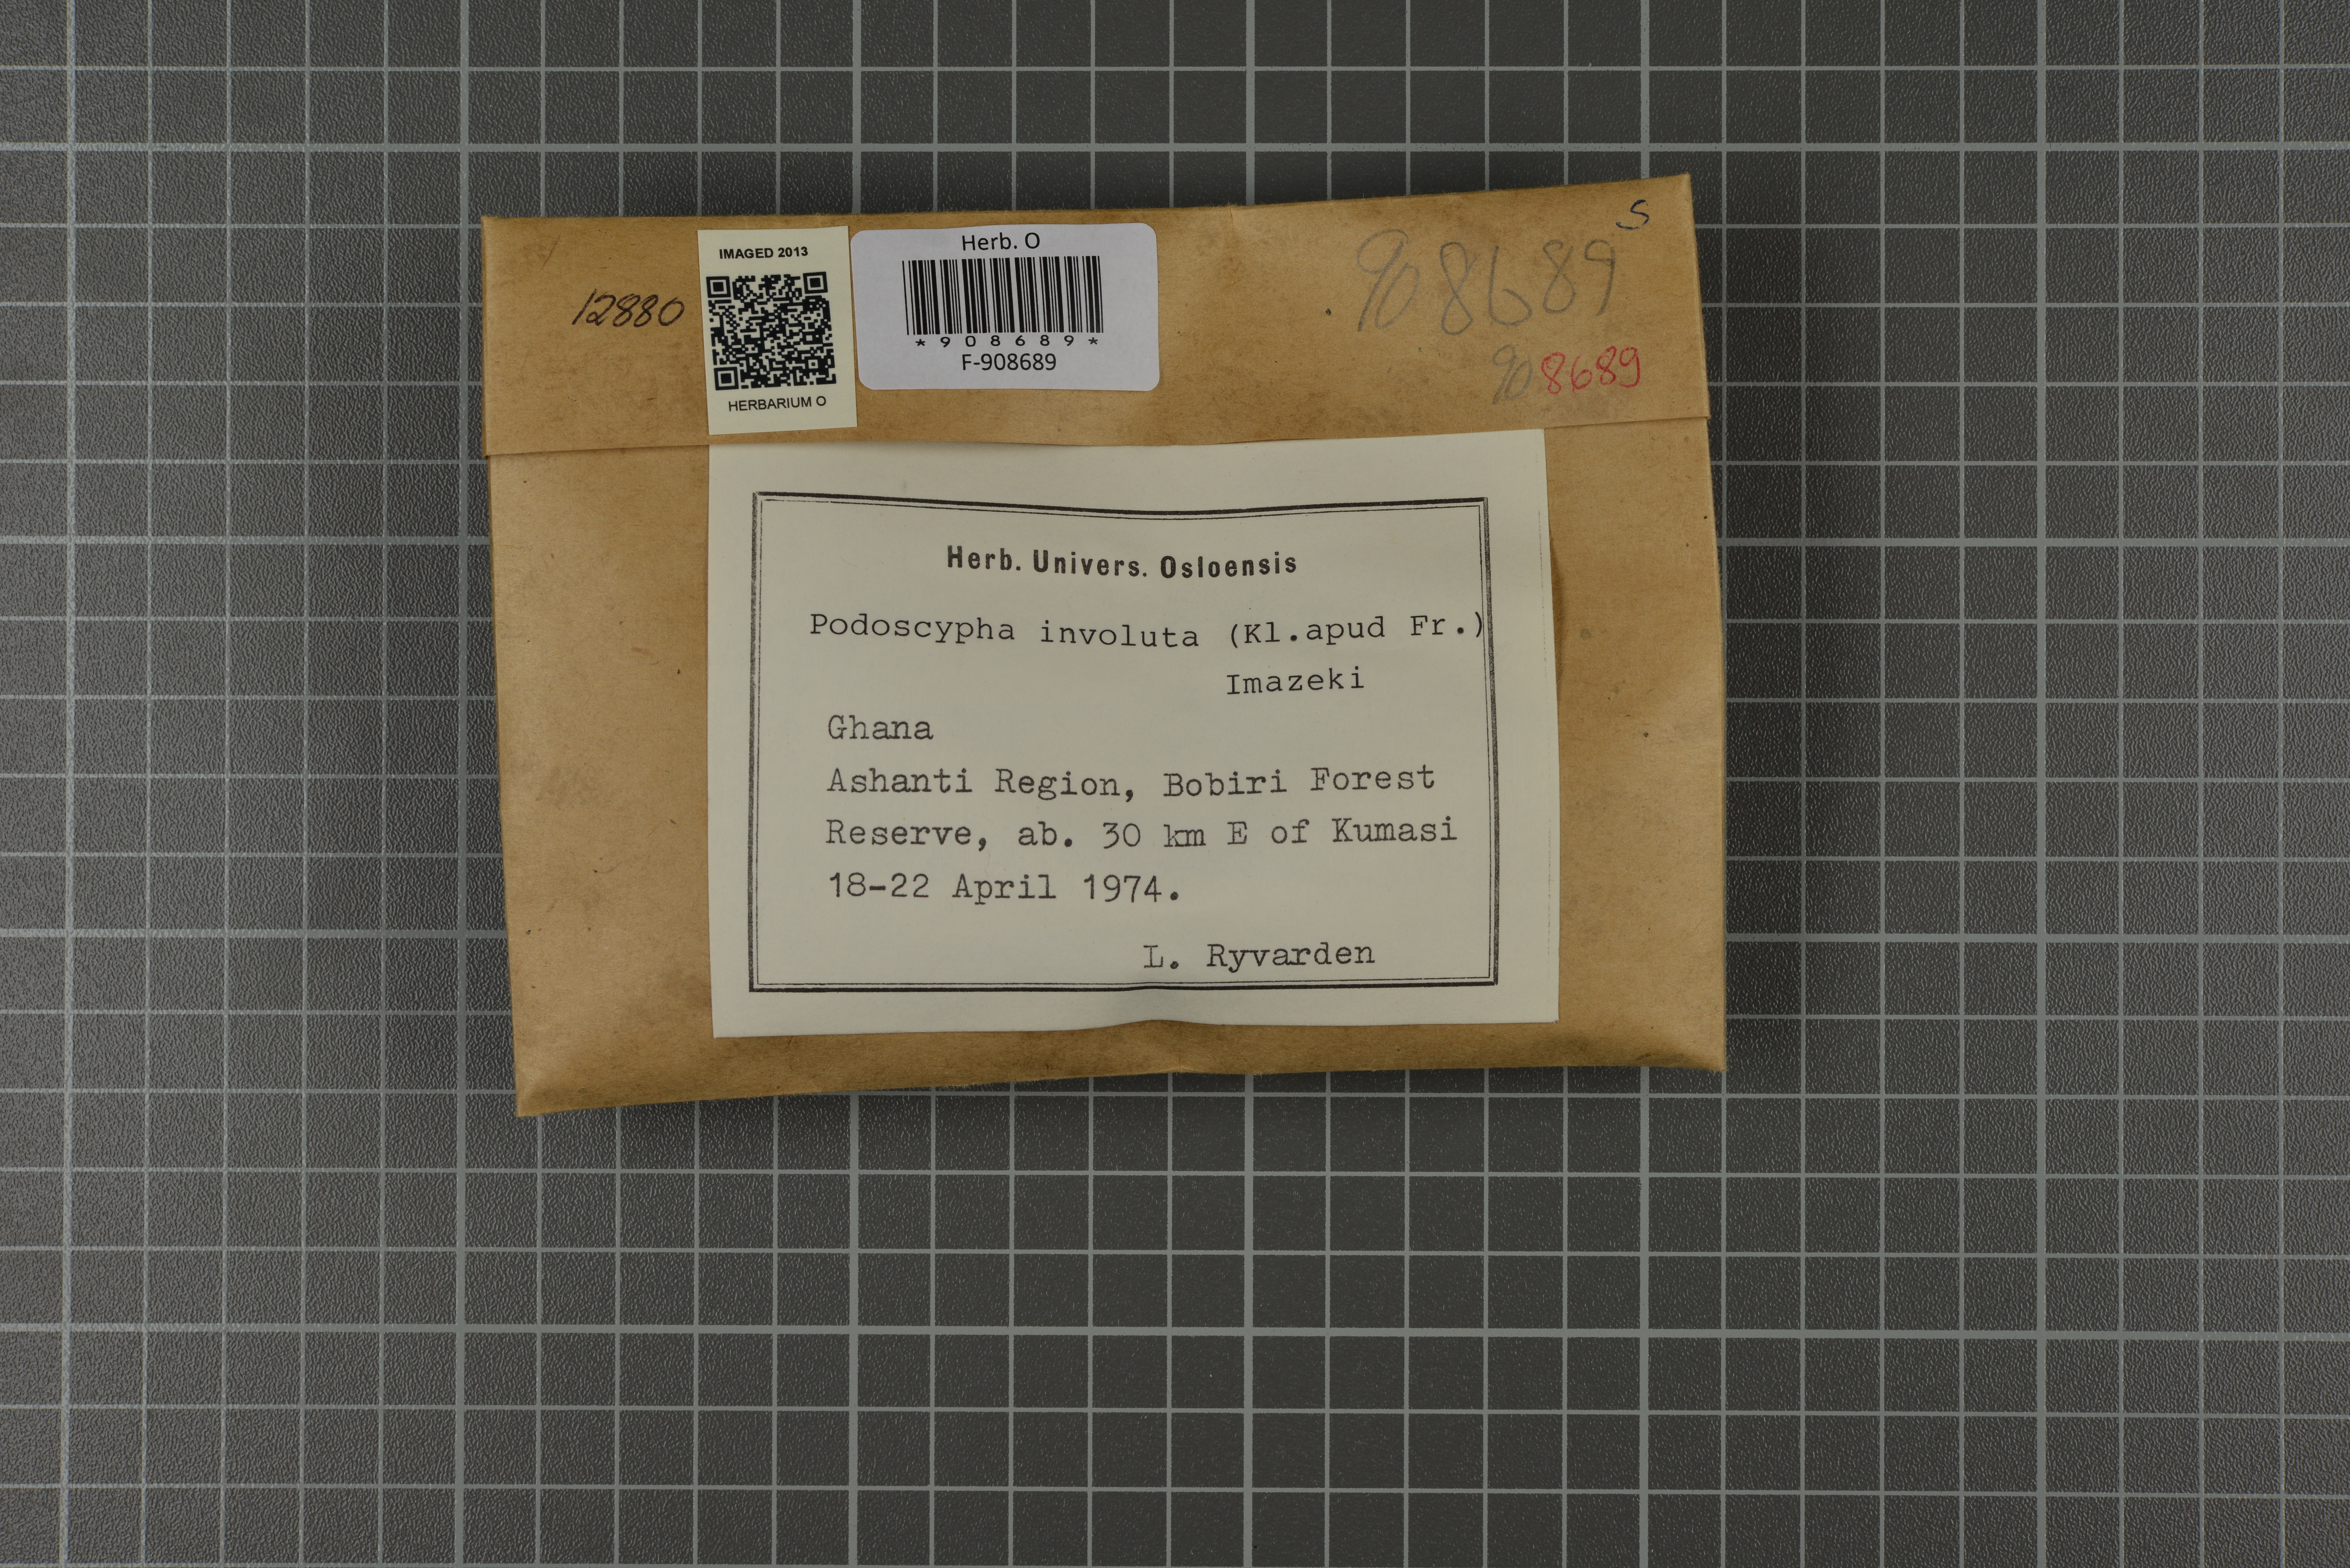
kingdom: Fungi
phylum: Basidiomycota
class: Agaricomycetes
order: Polyporales
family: Podoscyphaceae
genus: Podoscypha
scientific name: Podoscypha involuta
